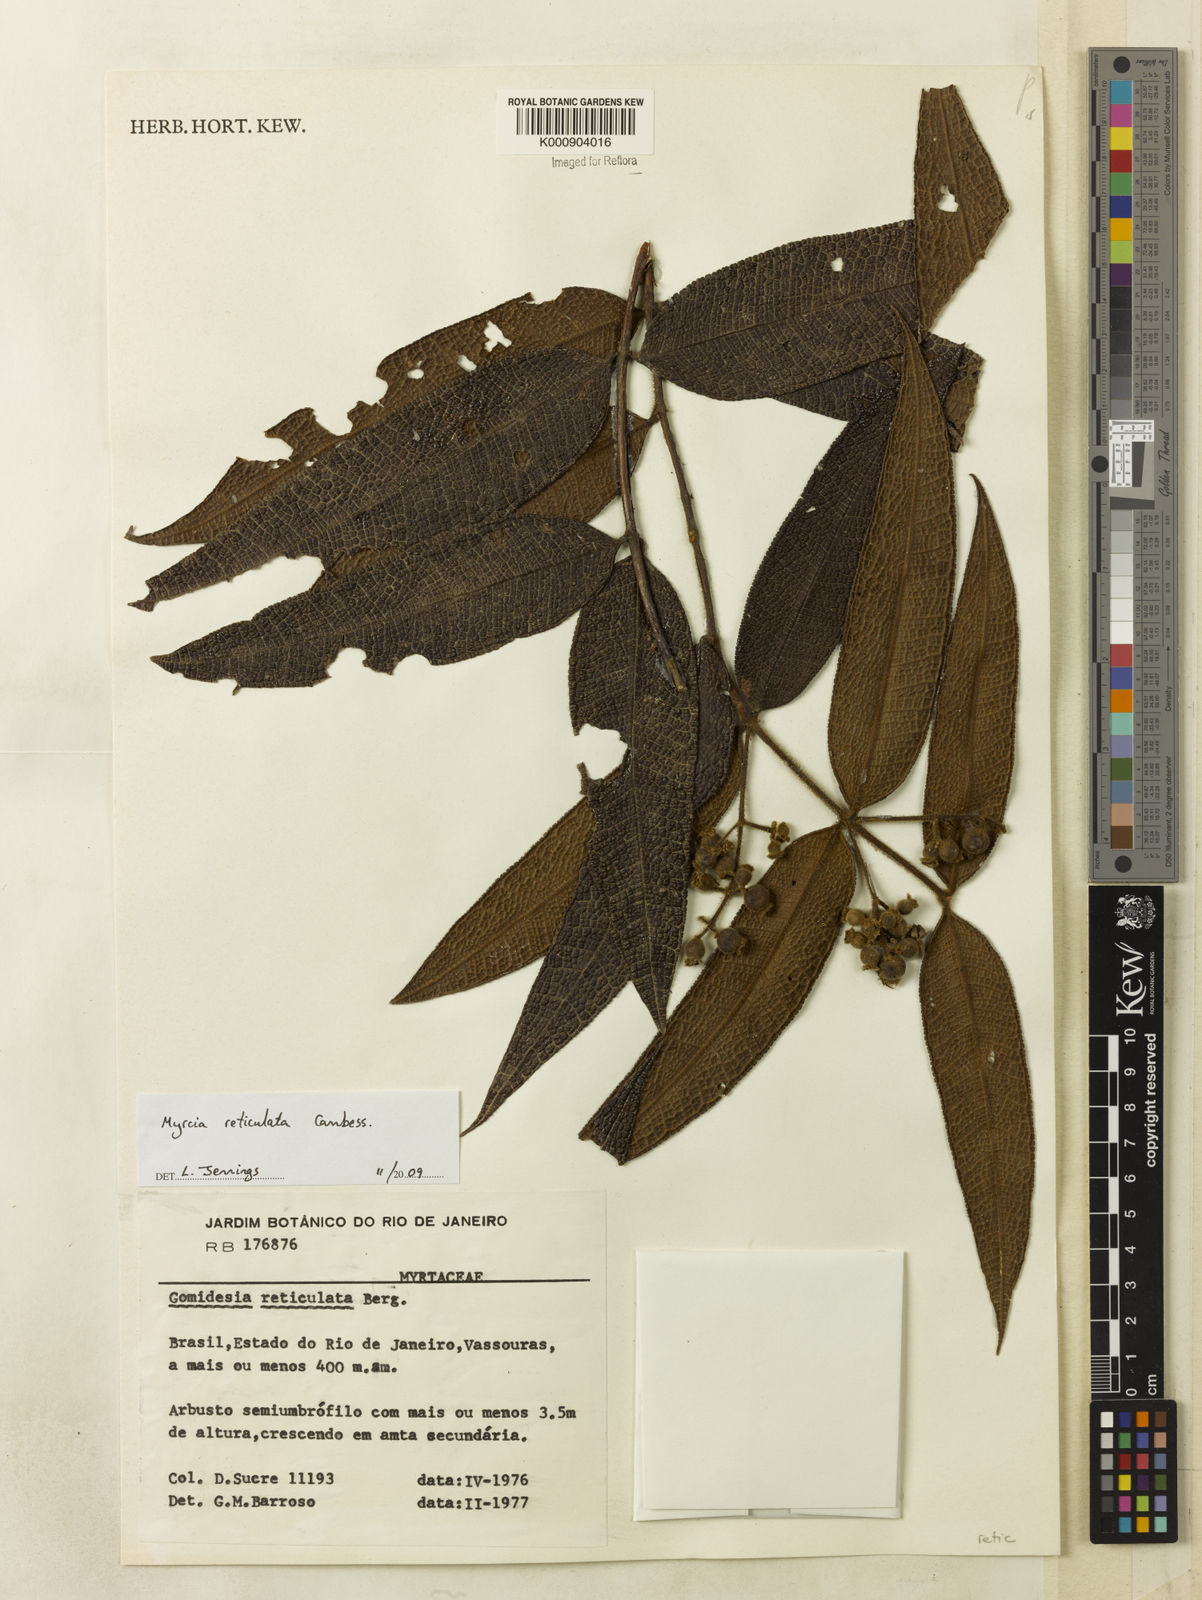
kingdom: Plantae
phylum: Tracheophyta
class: Magnoliopsida
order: Myrtales
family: Myrtaceae
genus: Myrcia
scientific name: Myrcia reticulata
